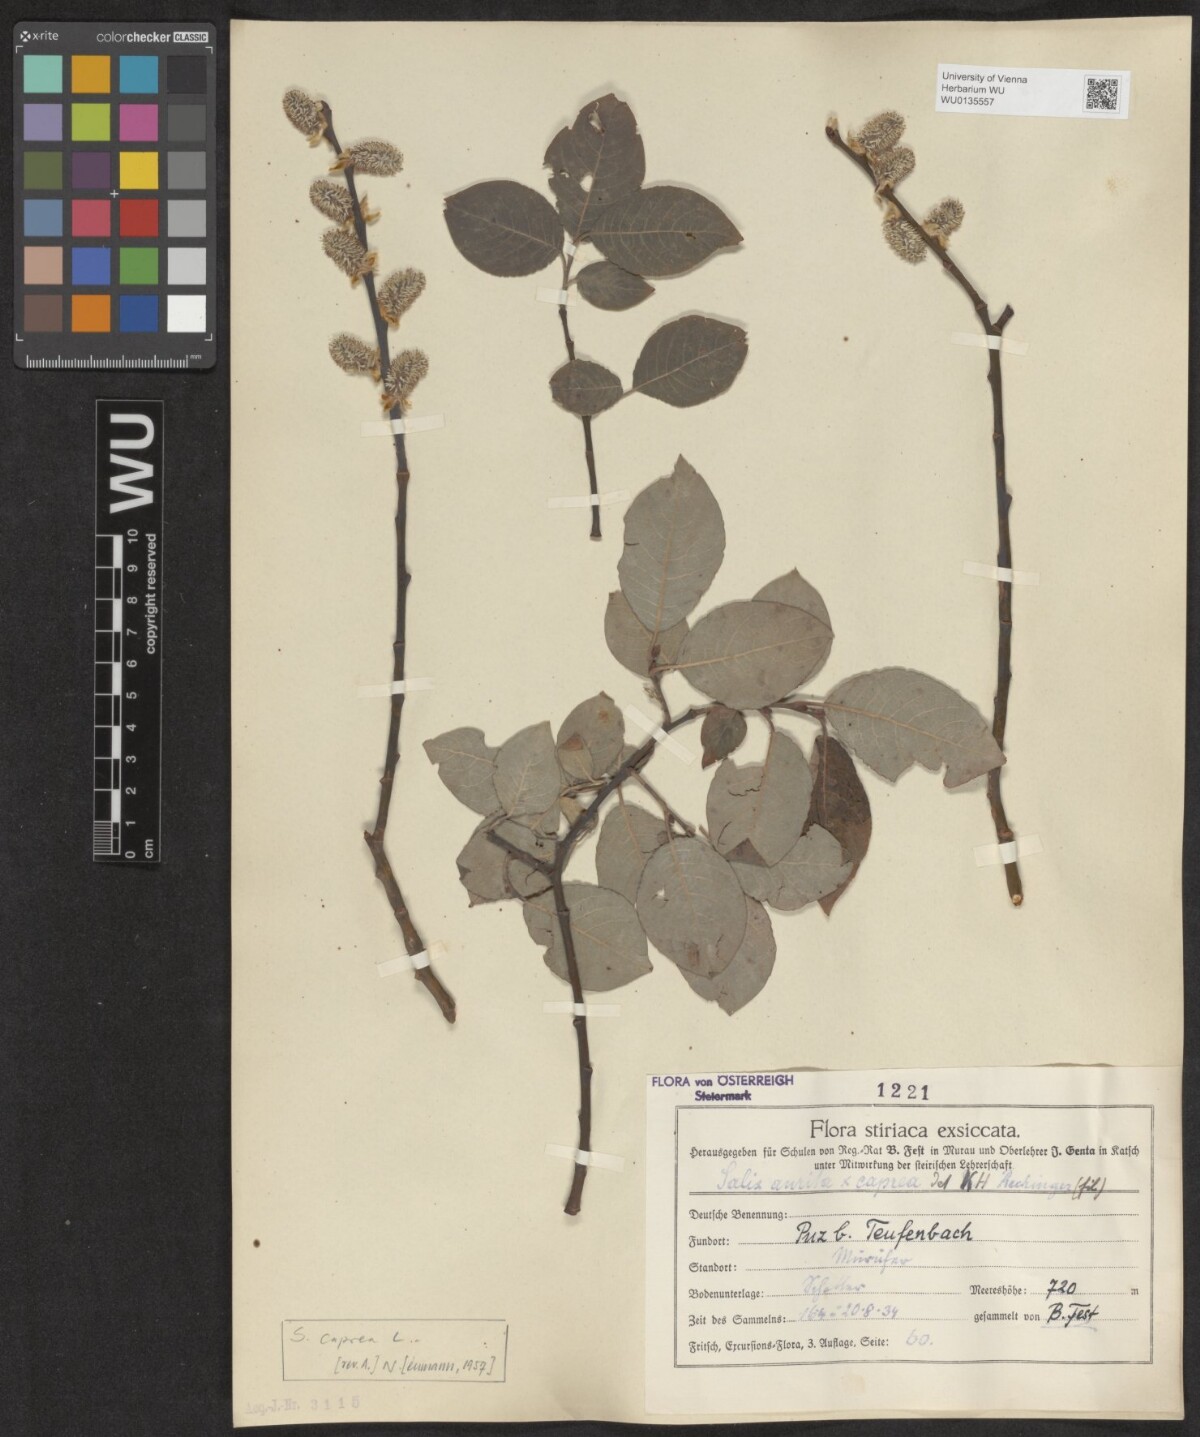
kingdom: Plantae
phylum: Tracheophyta
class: Magnoliopsida
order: Malpighiales
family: Salicaceae
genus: Salix
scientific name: Salix caprea
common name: Goat willow
